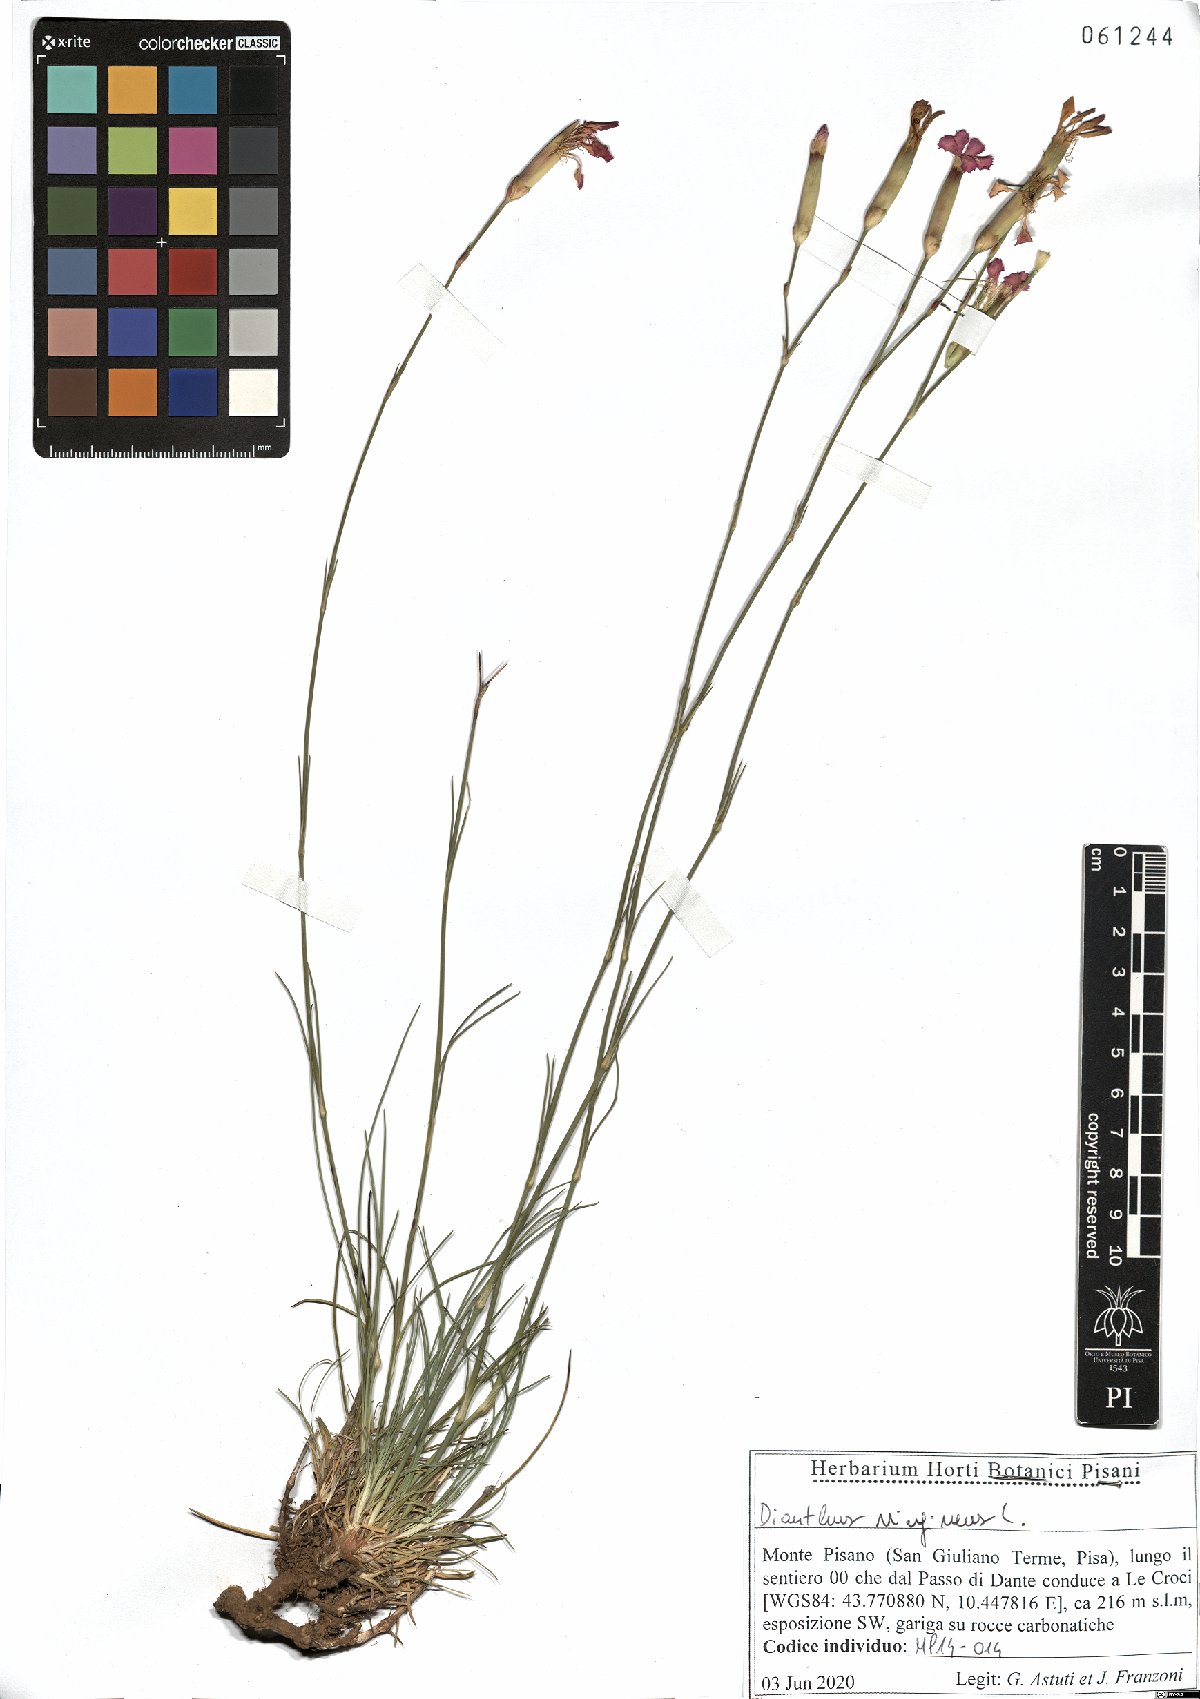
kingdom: Plantae
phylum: Tracheophyta
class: Magnoliopsida
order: Caryophyllales
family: Caryophyllaceae
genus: Dianthus
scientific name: Dianthus virgineus
